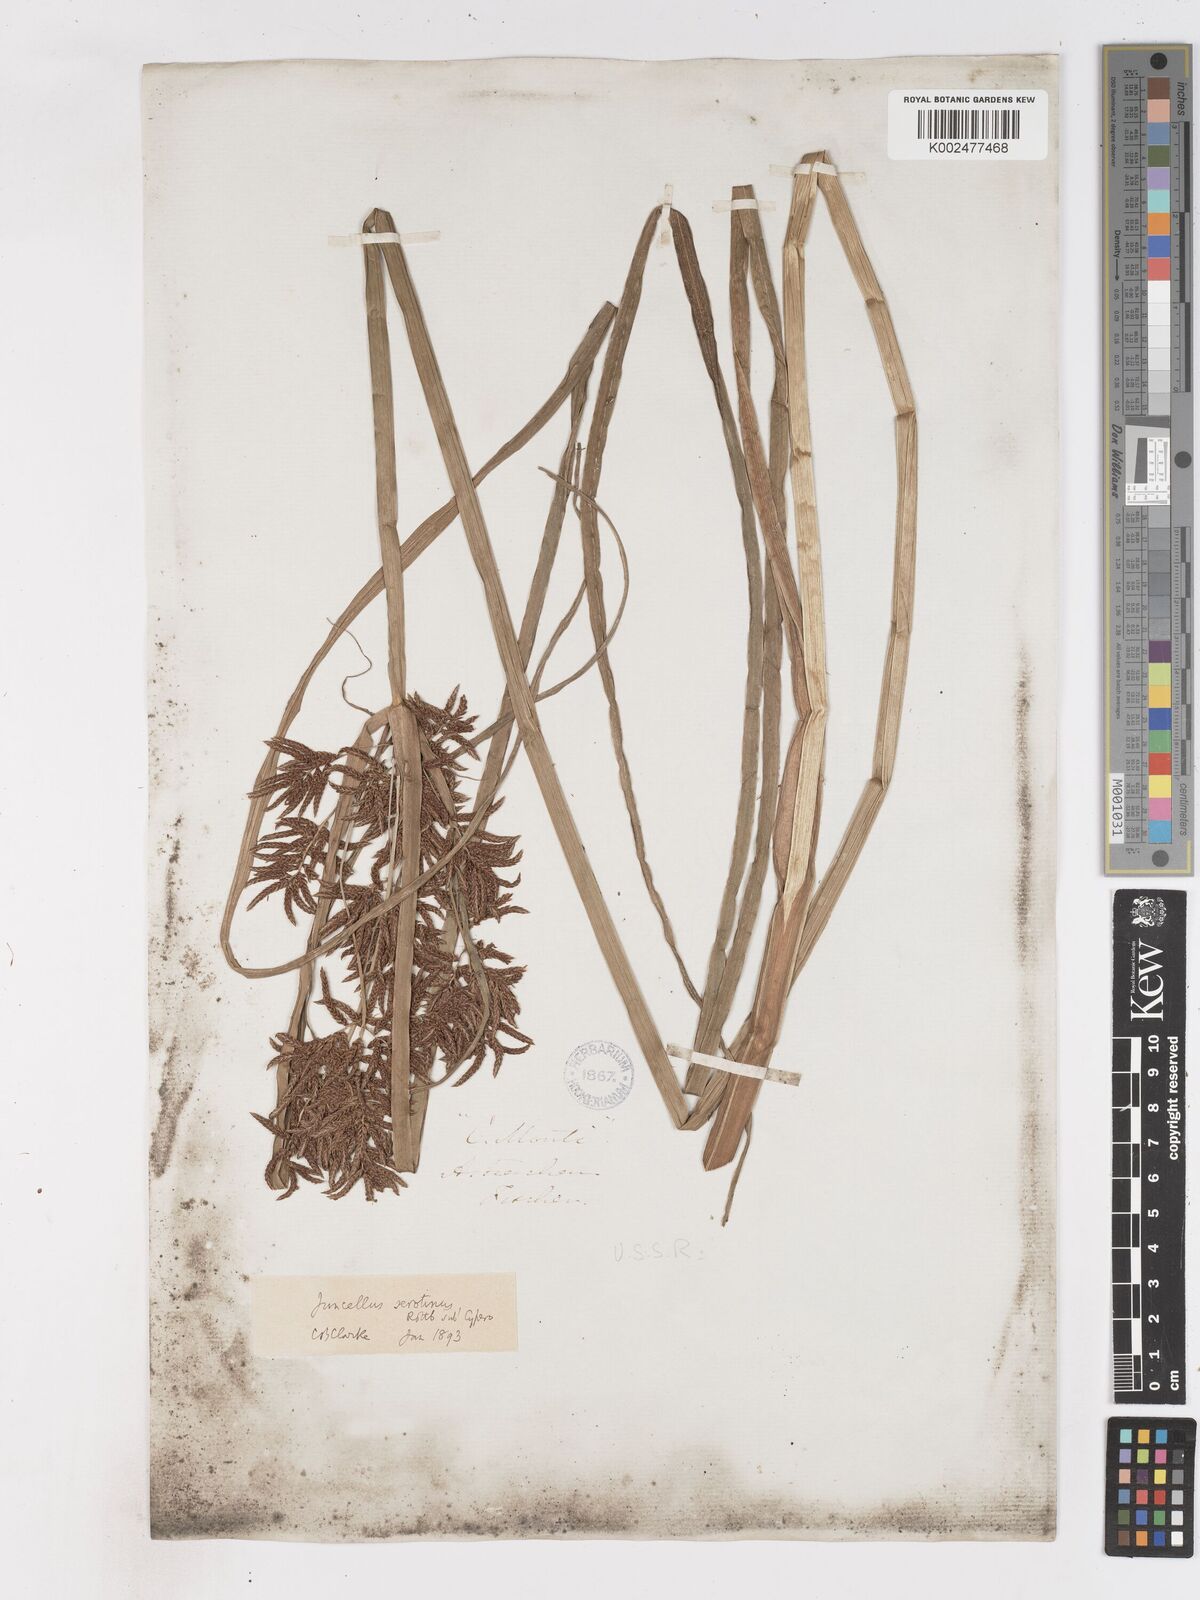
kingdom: Plantae
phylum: Tracheophyta
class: Liliopsida
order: Poales
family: Cyperaceae
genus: Cyperus
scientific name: Cyperus serotinus
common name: Tidalmarsh flatsedge
